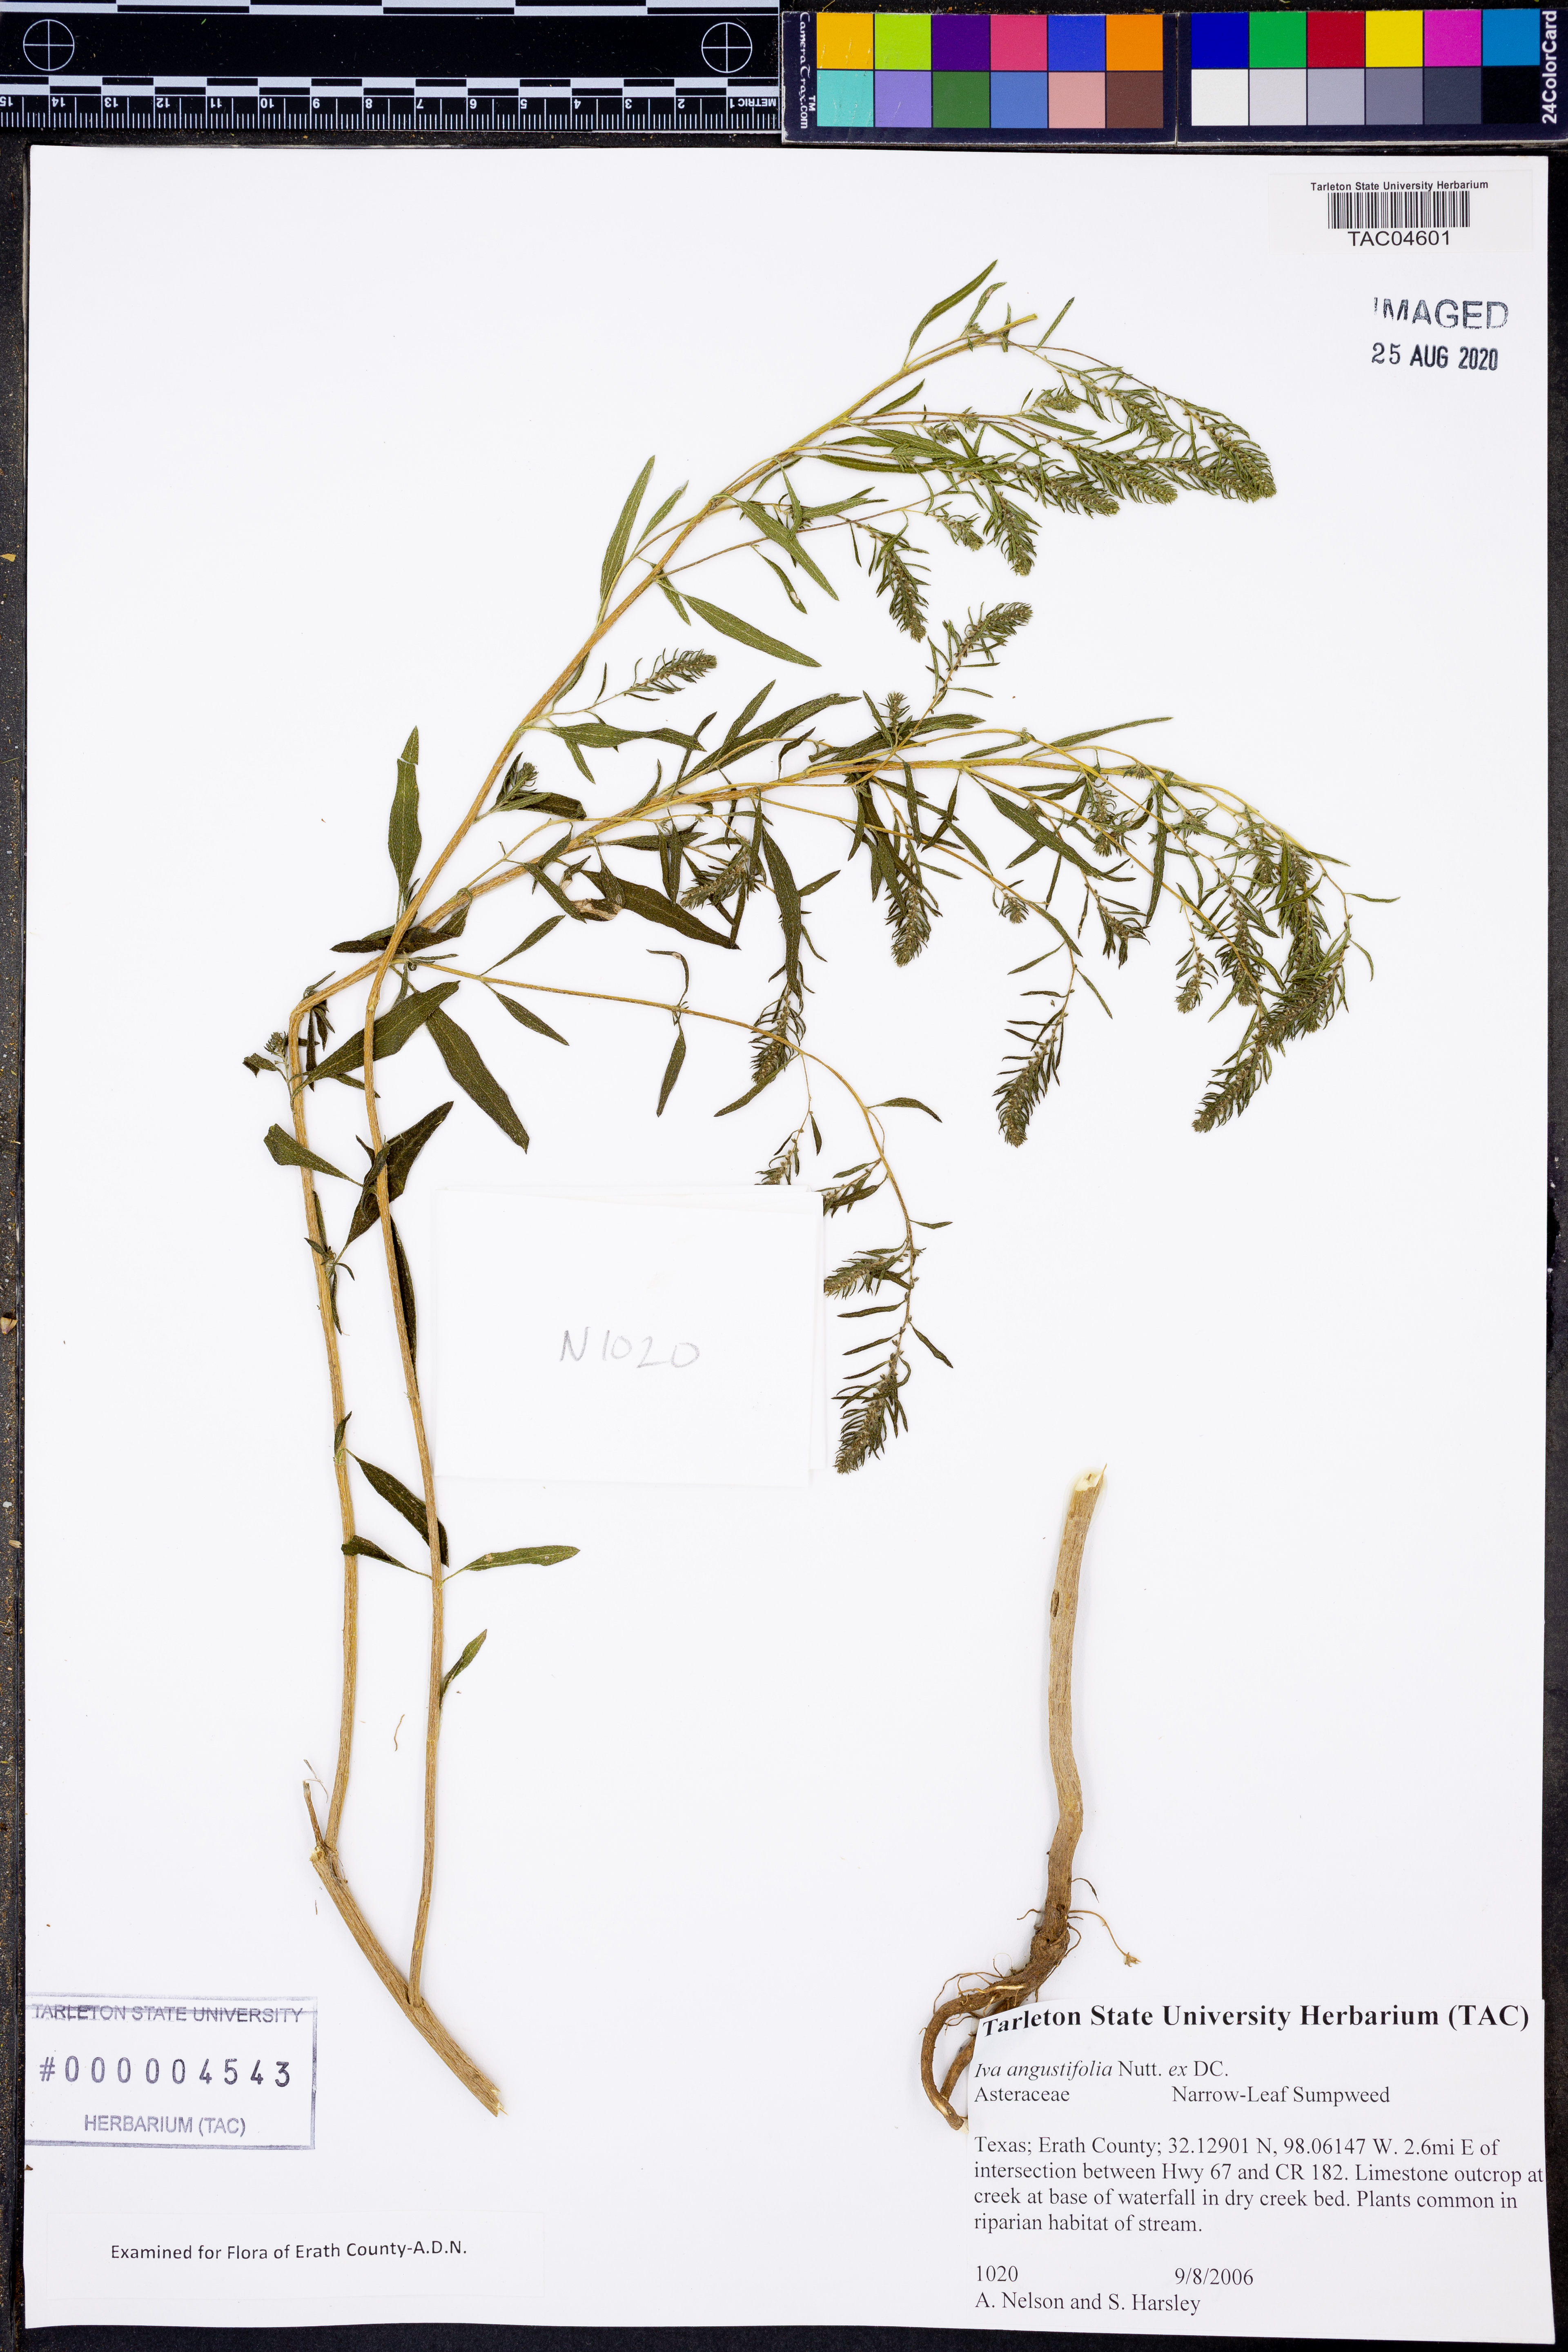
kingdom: Plantae
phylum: Tracheophyta
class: Magnoliopsida
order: Asterales
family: Asteraceae
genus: Iva
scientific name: Iva asperifolia
